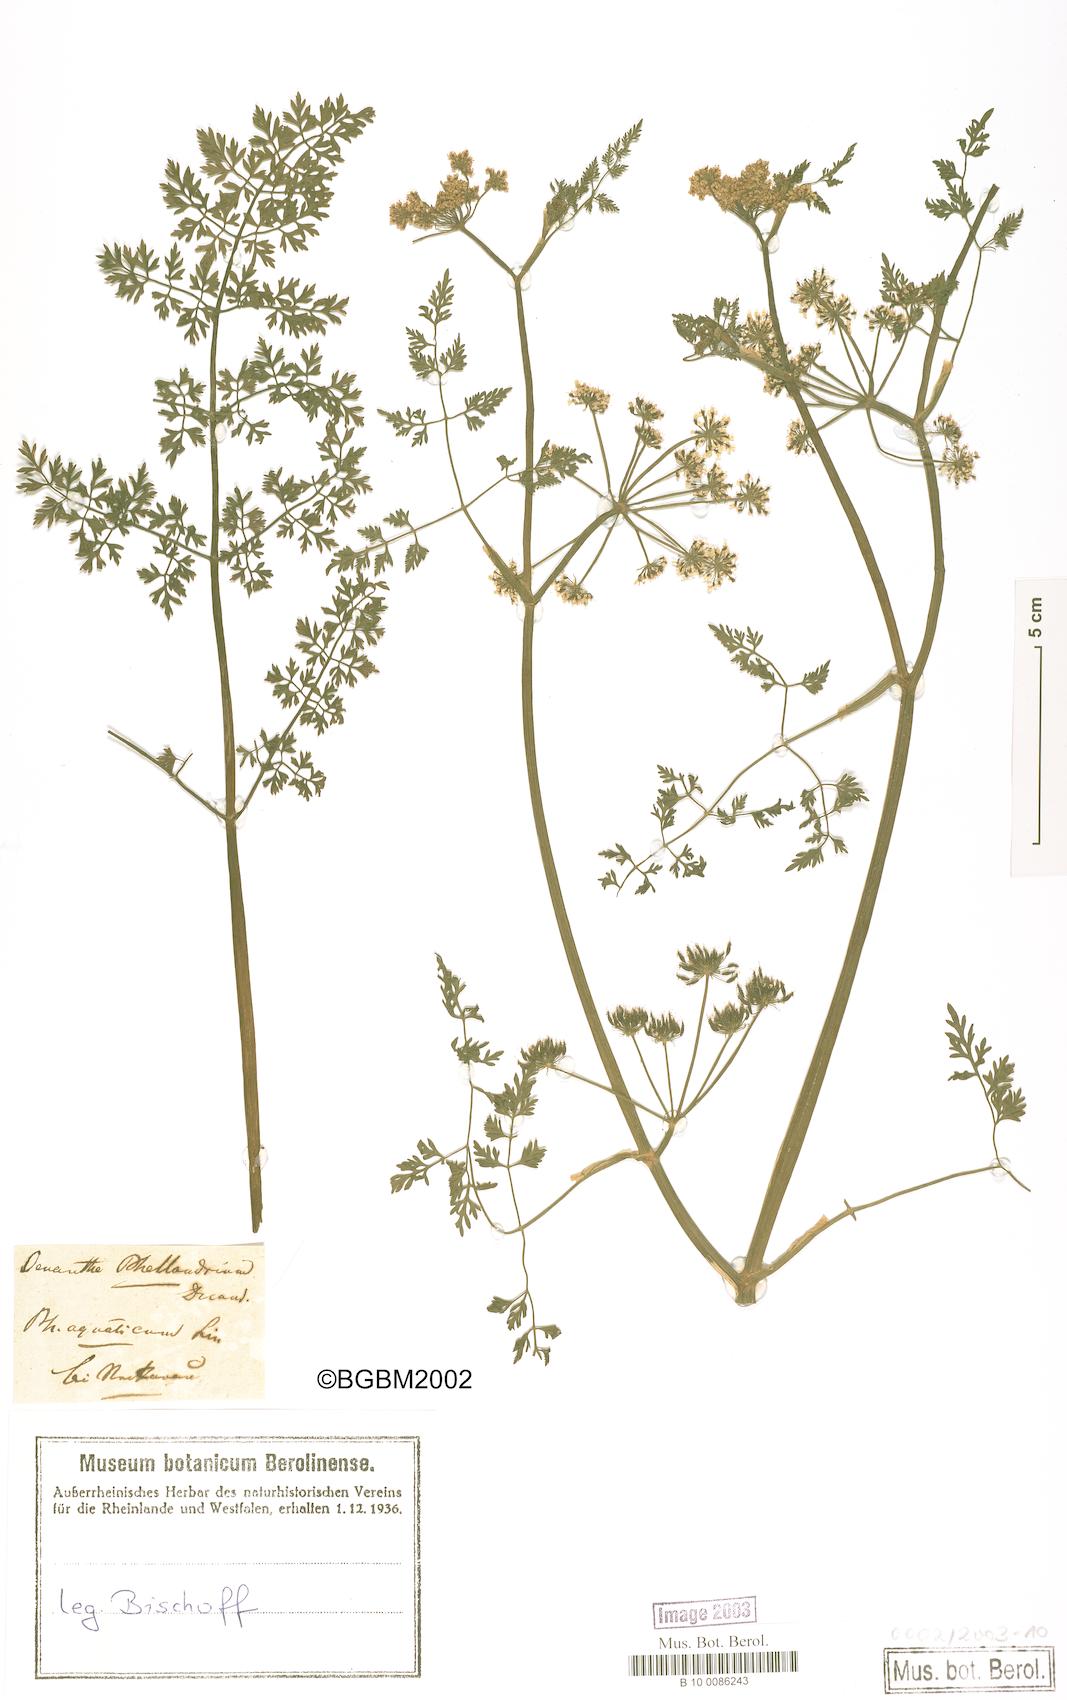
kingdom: Plantae
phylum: Tracheophyta
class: Magnoliopsida
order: Apiales
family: Apiaceae
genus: Oenanthe
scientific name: Oenanthe aquatica
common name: Fine-leaved water-dropwort
